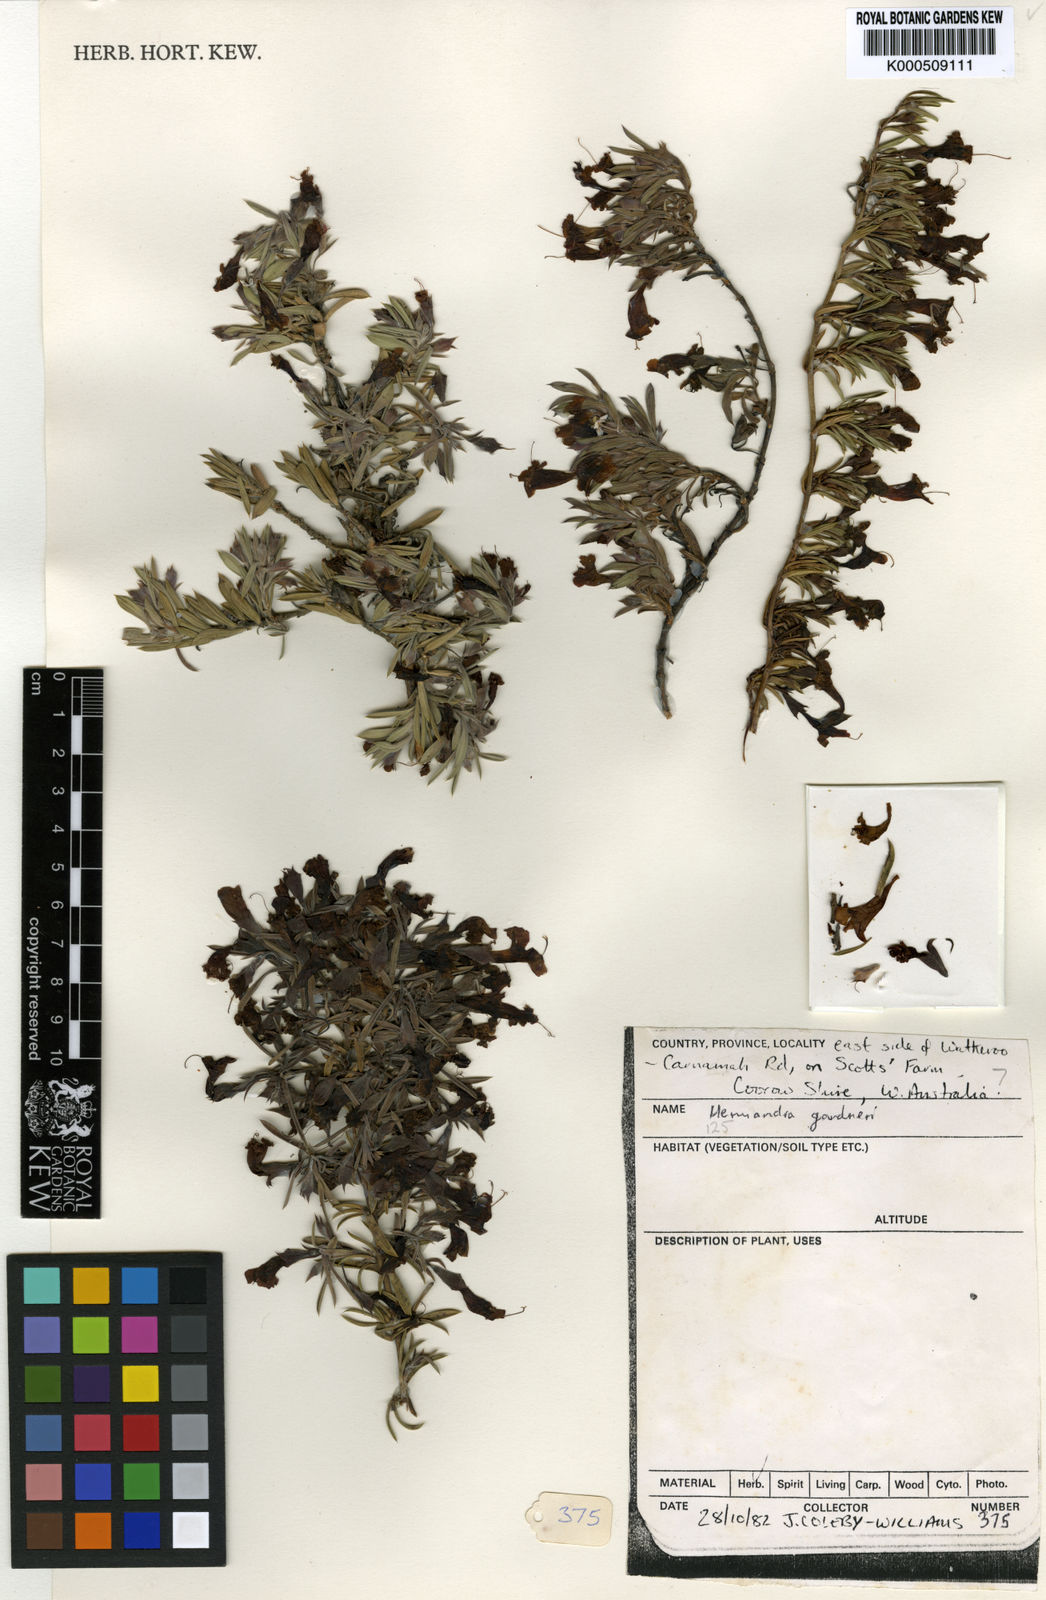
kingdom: Plantae
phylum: Tracheophyta
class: Magnoliopsida
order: Lamiales
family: Lamiaceae
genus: Hemiandra
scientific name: Hemiandra gardneri
